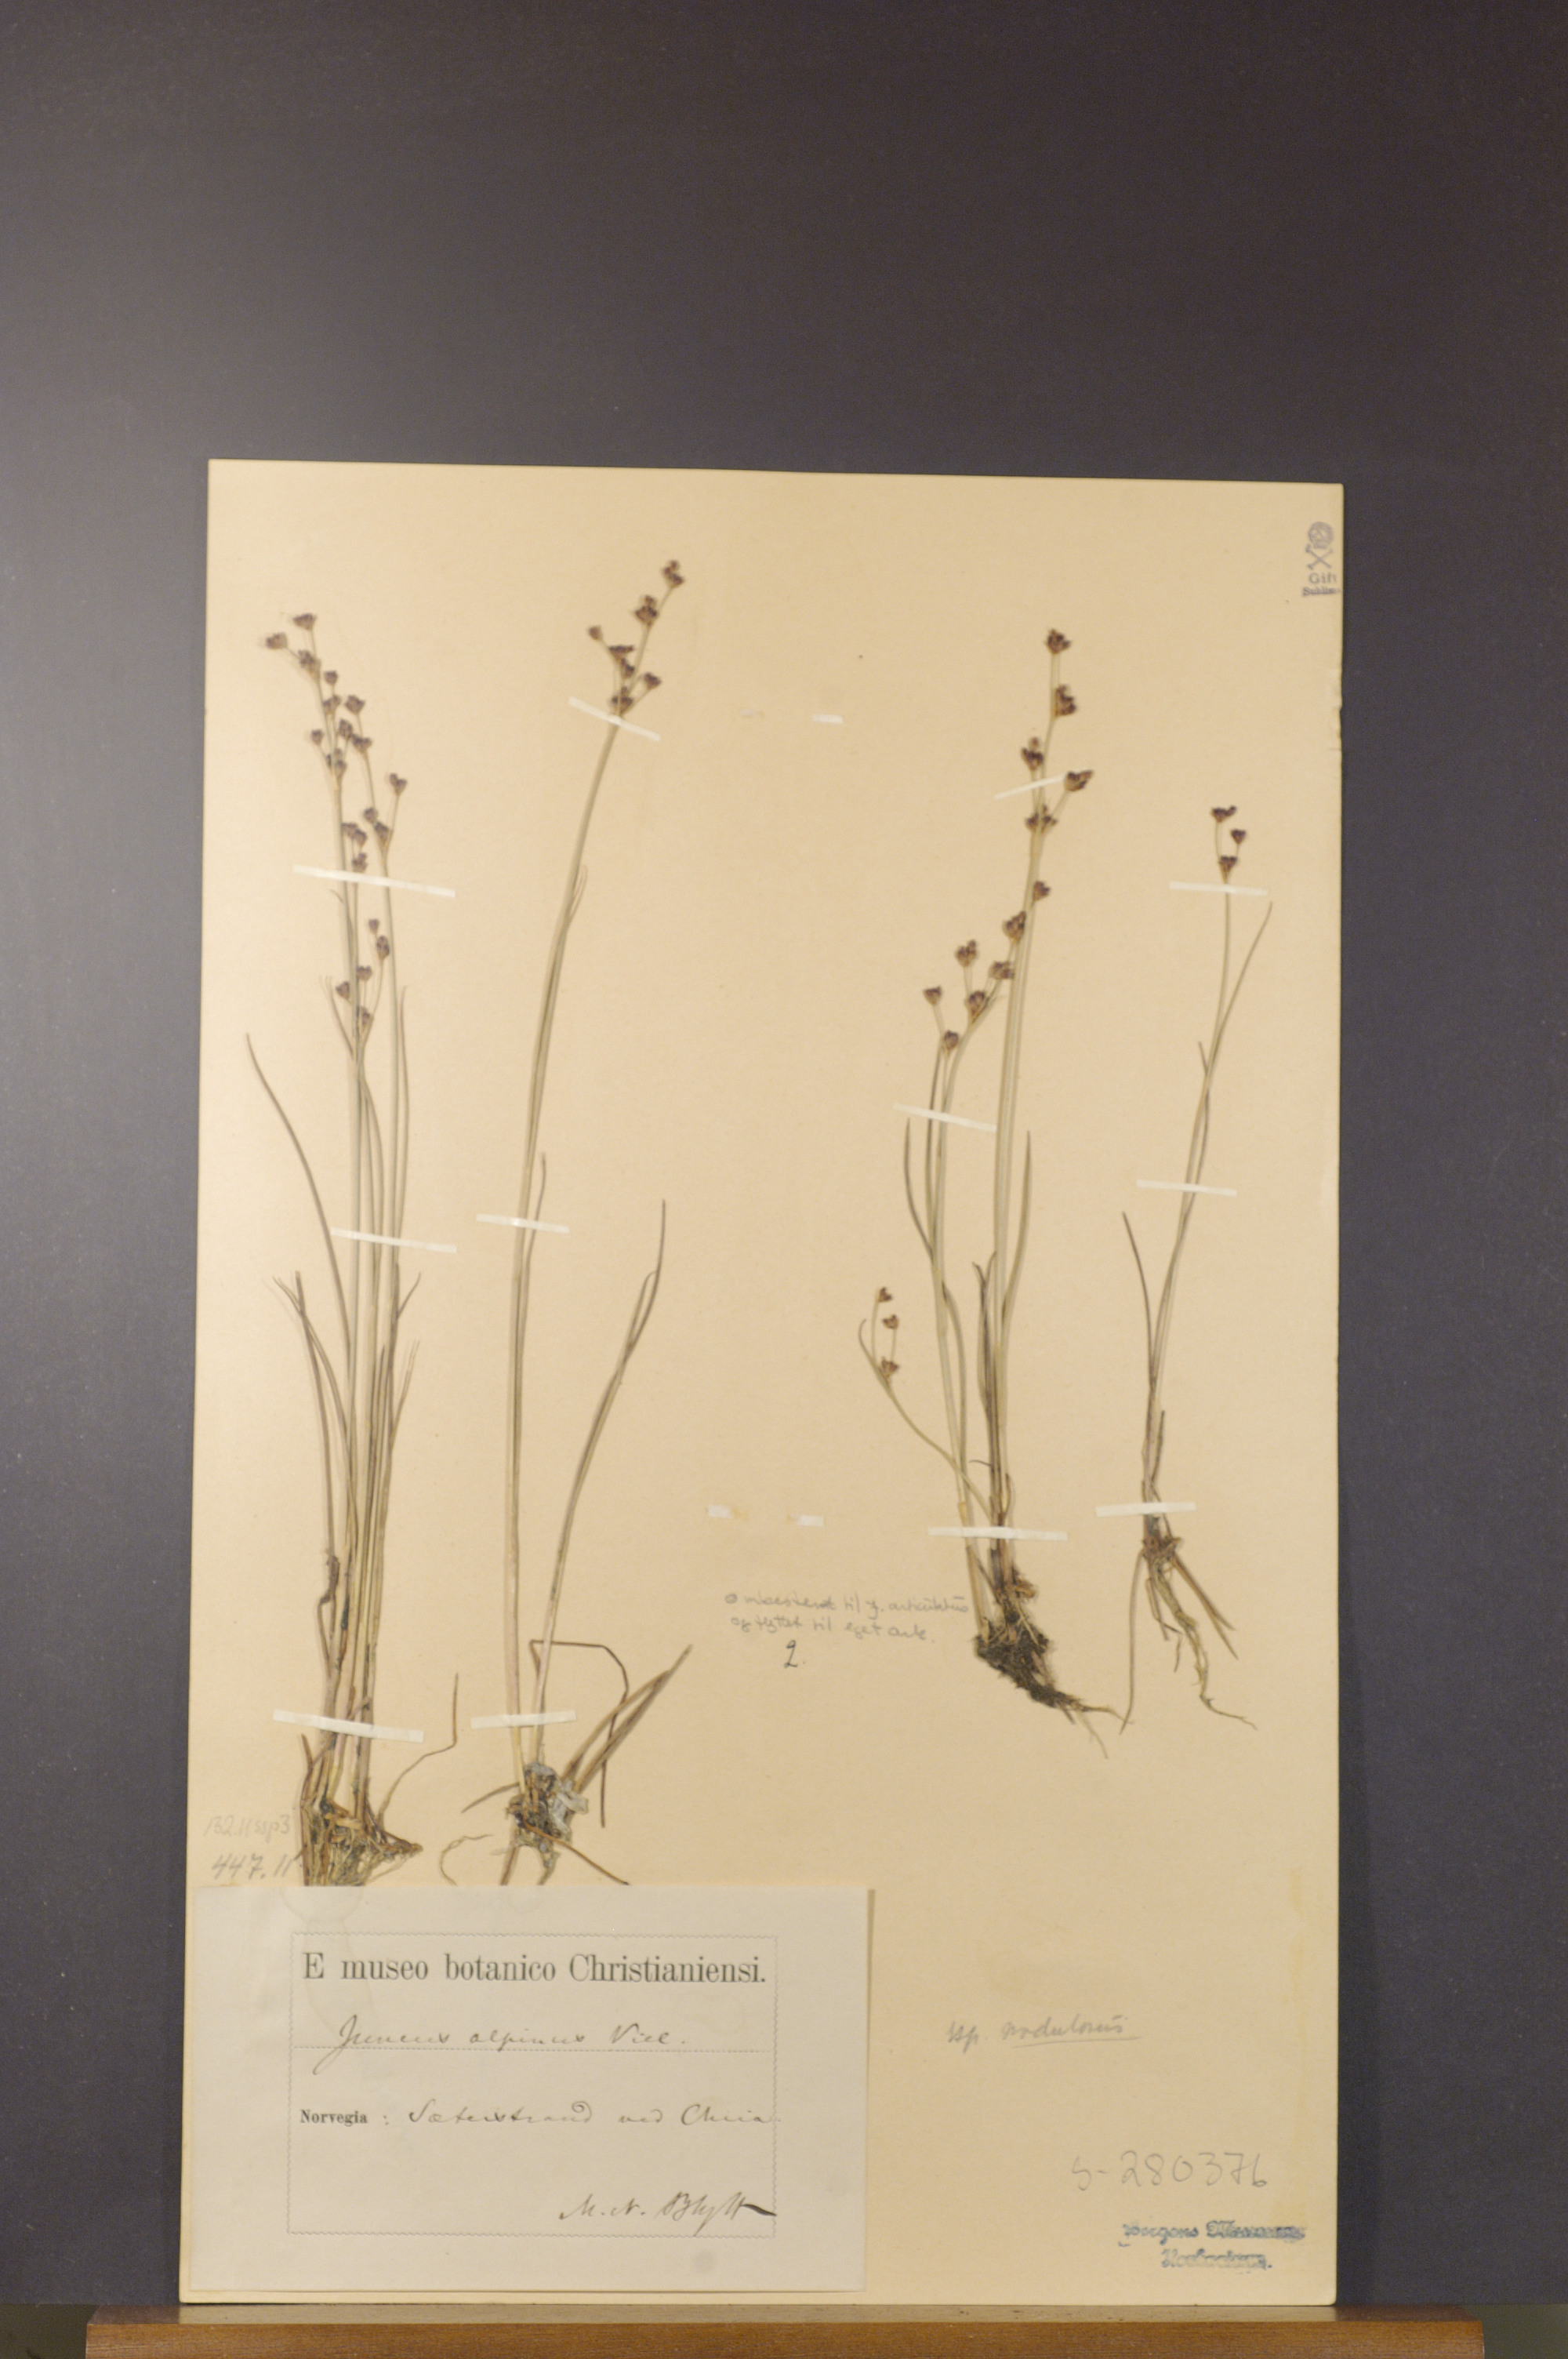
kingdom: Plantae
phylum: Tracheophyta
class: Liliopsida
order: Poales
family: Juncaceae
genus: Juncus
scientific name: Juncus alpinoarticulatus
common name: Alpine rush
